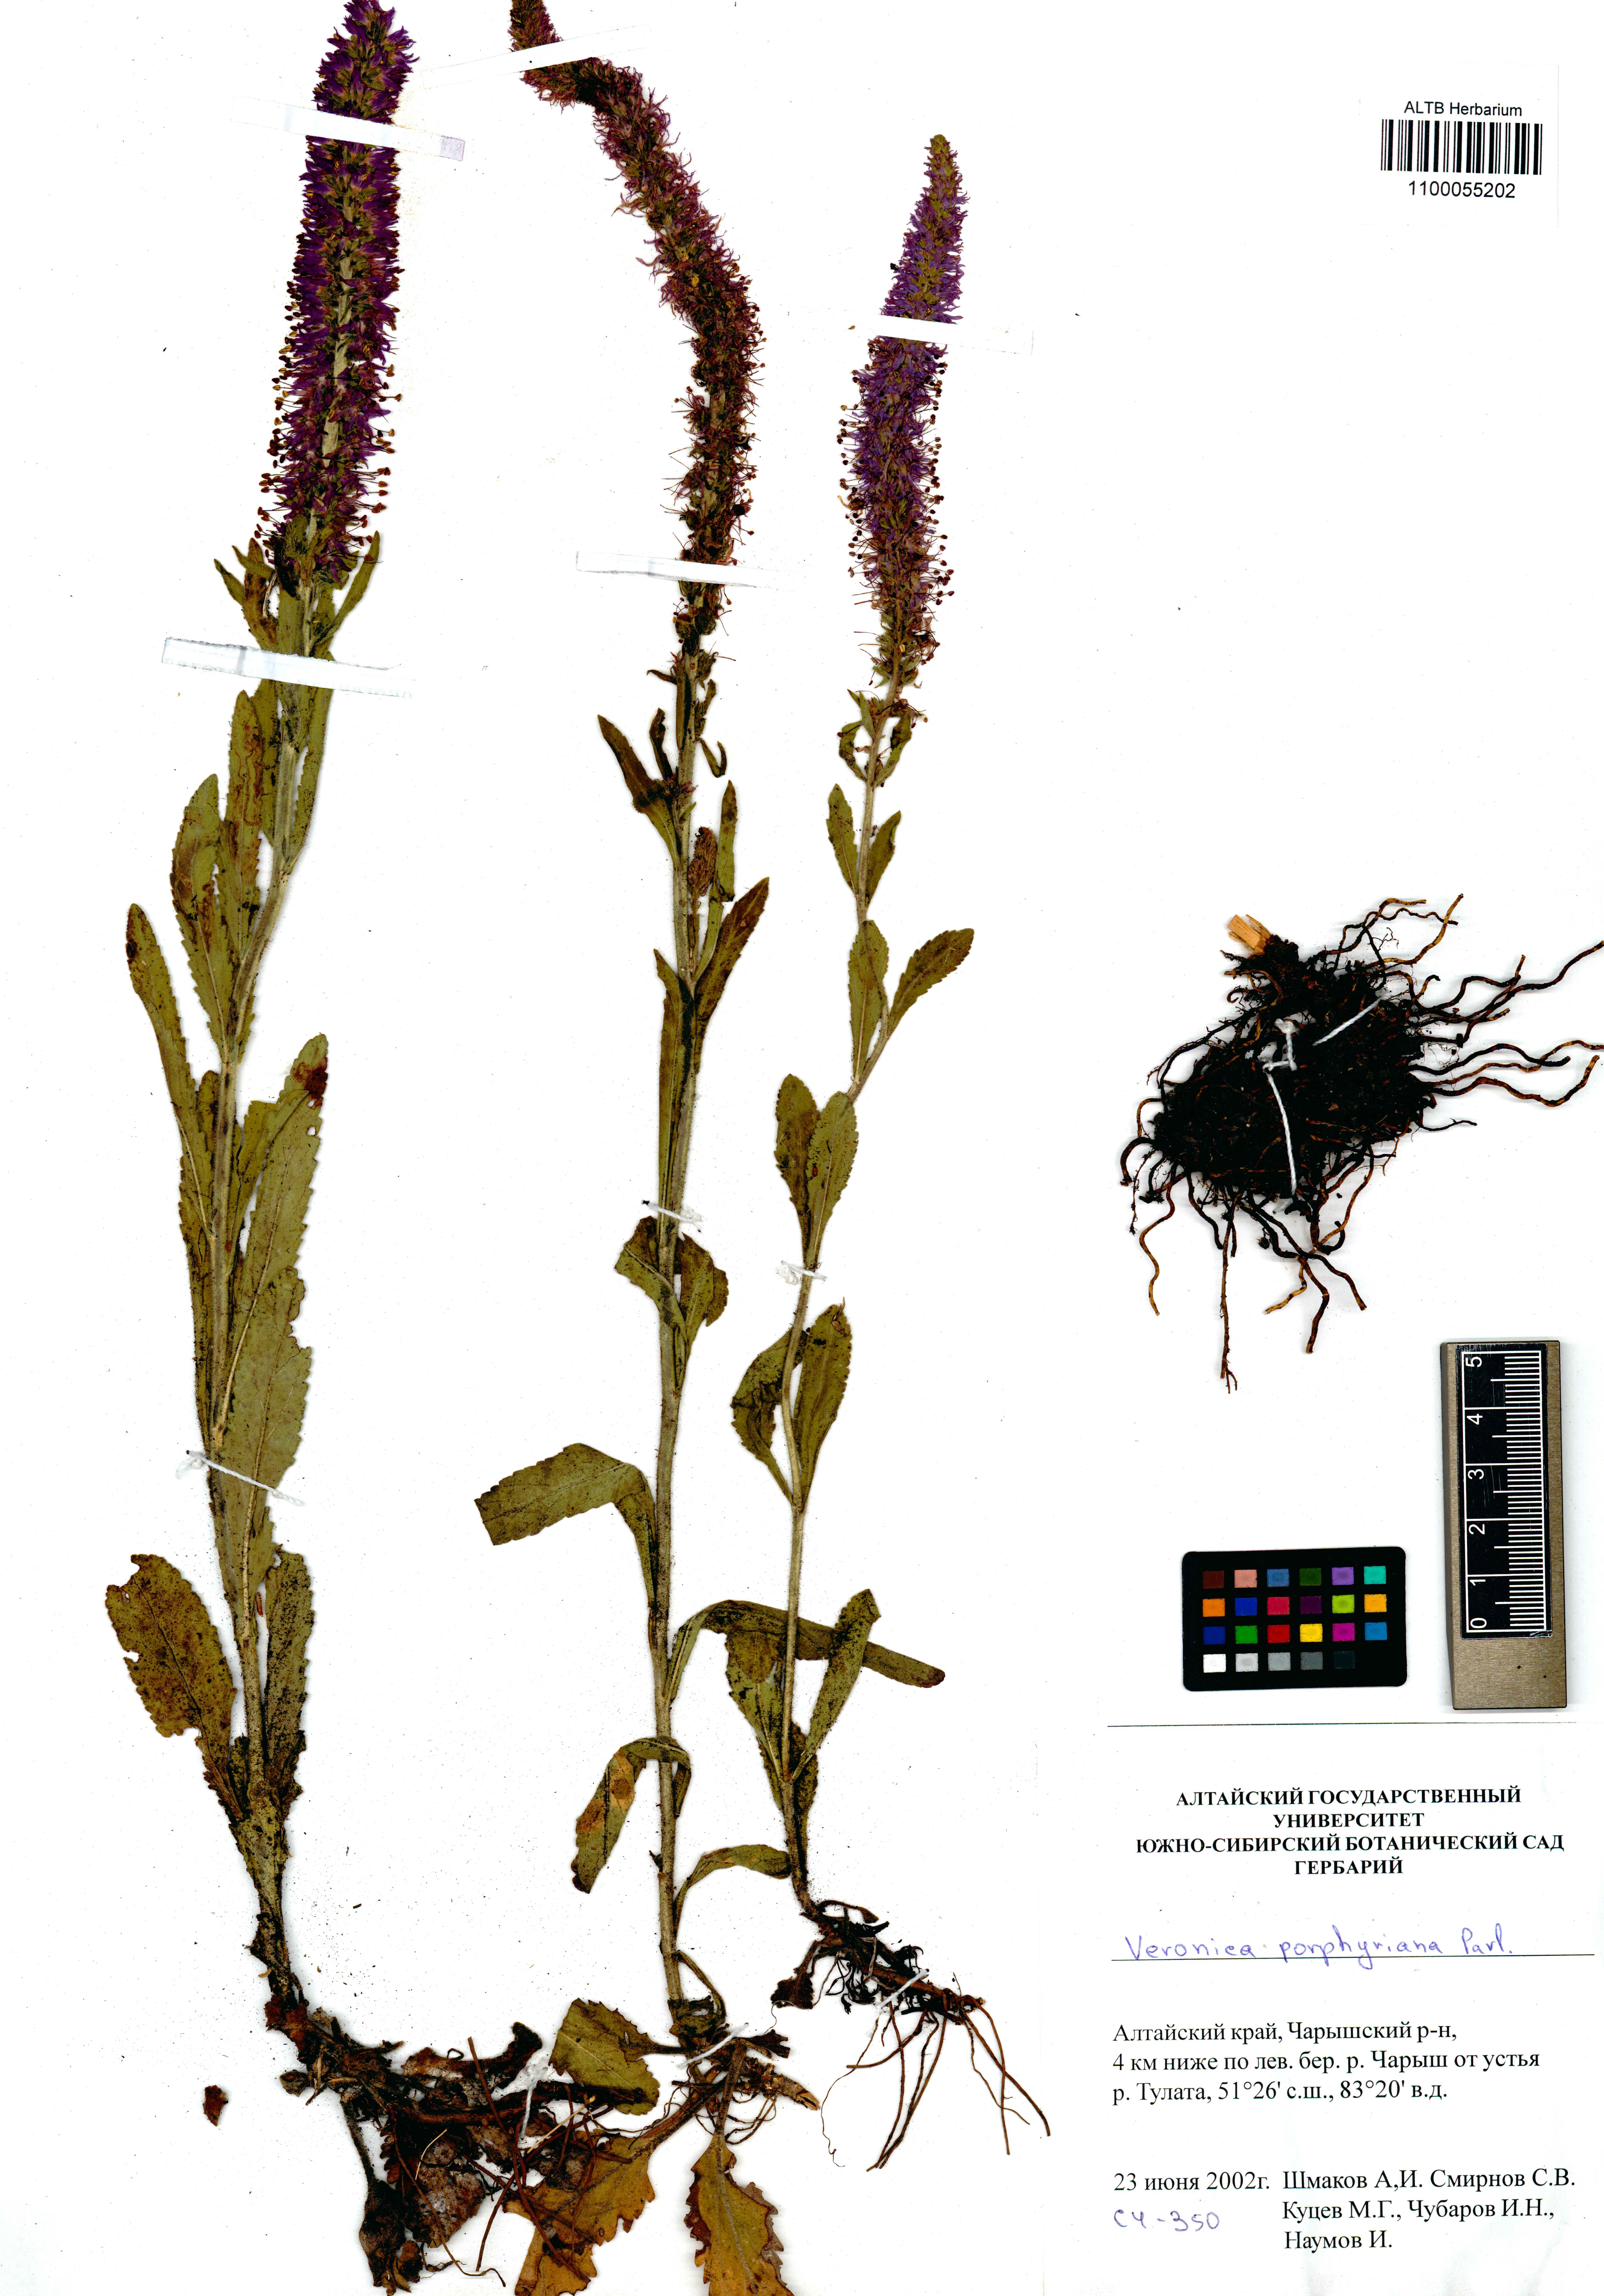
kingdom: Plantae
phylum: Tracheophyta
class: Magnoliopsida
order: Lamiales
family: Plantaginaceae
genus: Veronica
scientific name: Veronica porphyriana
